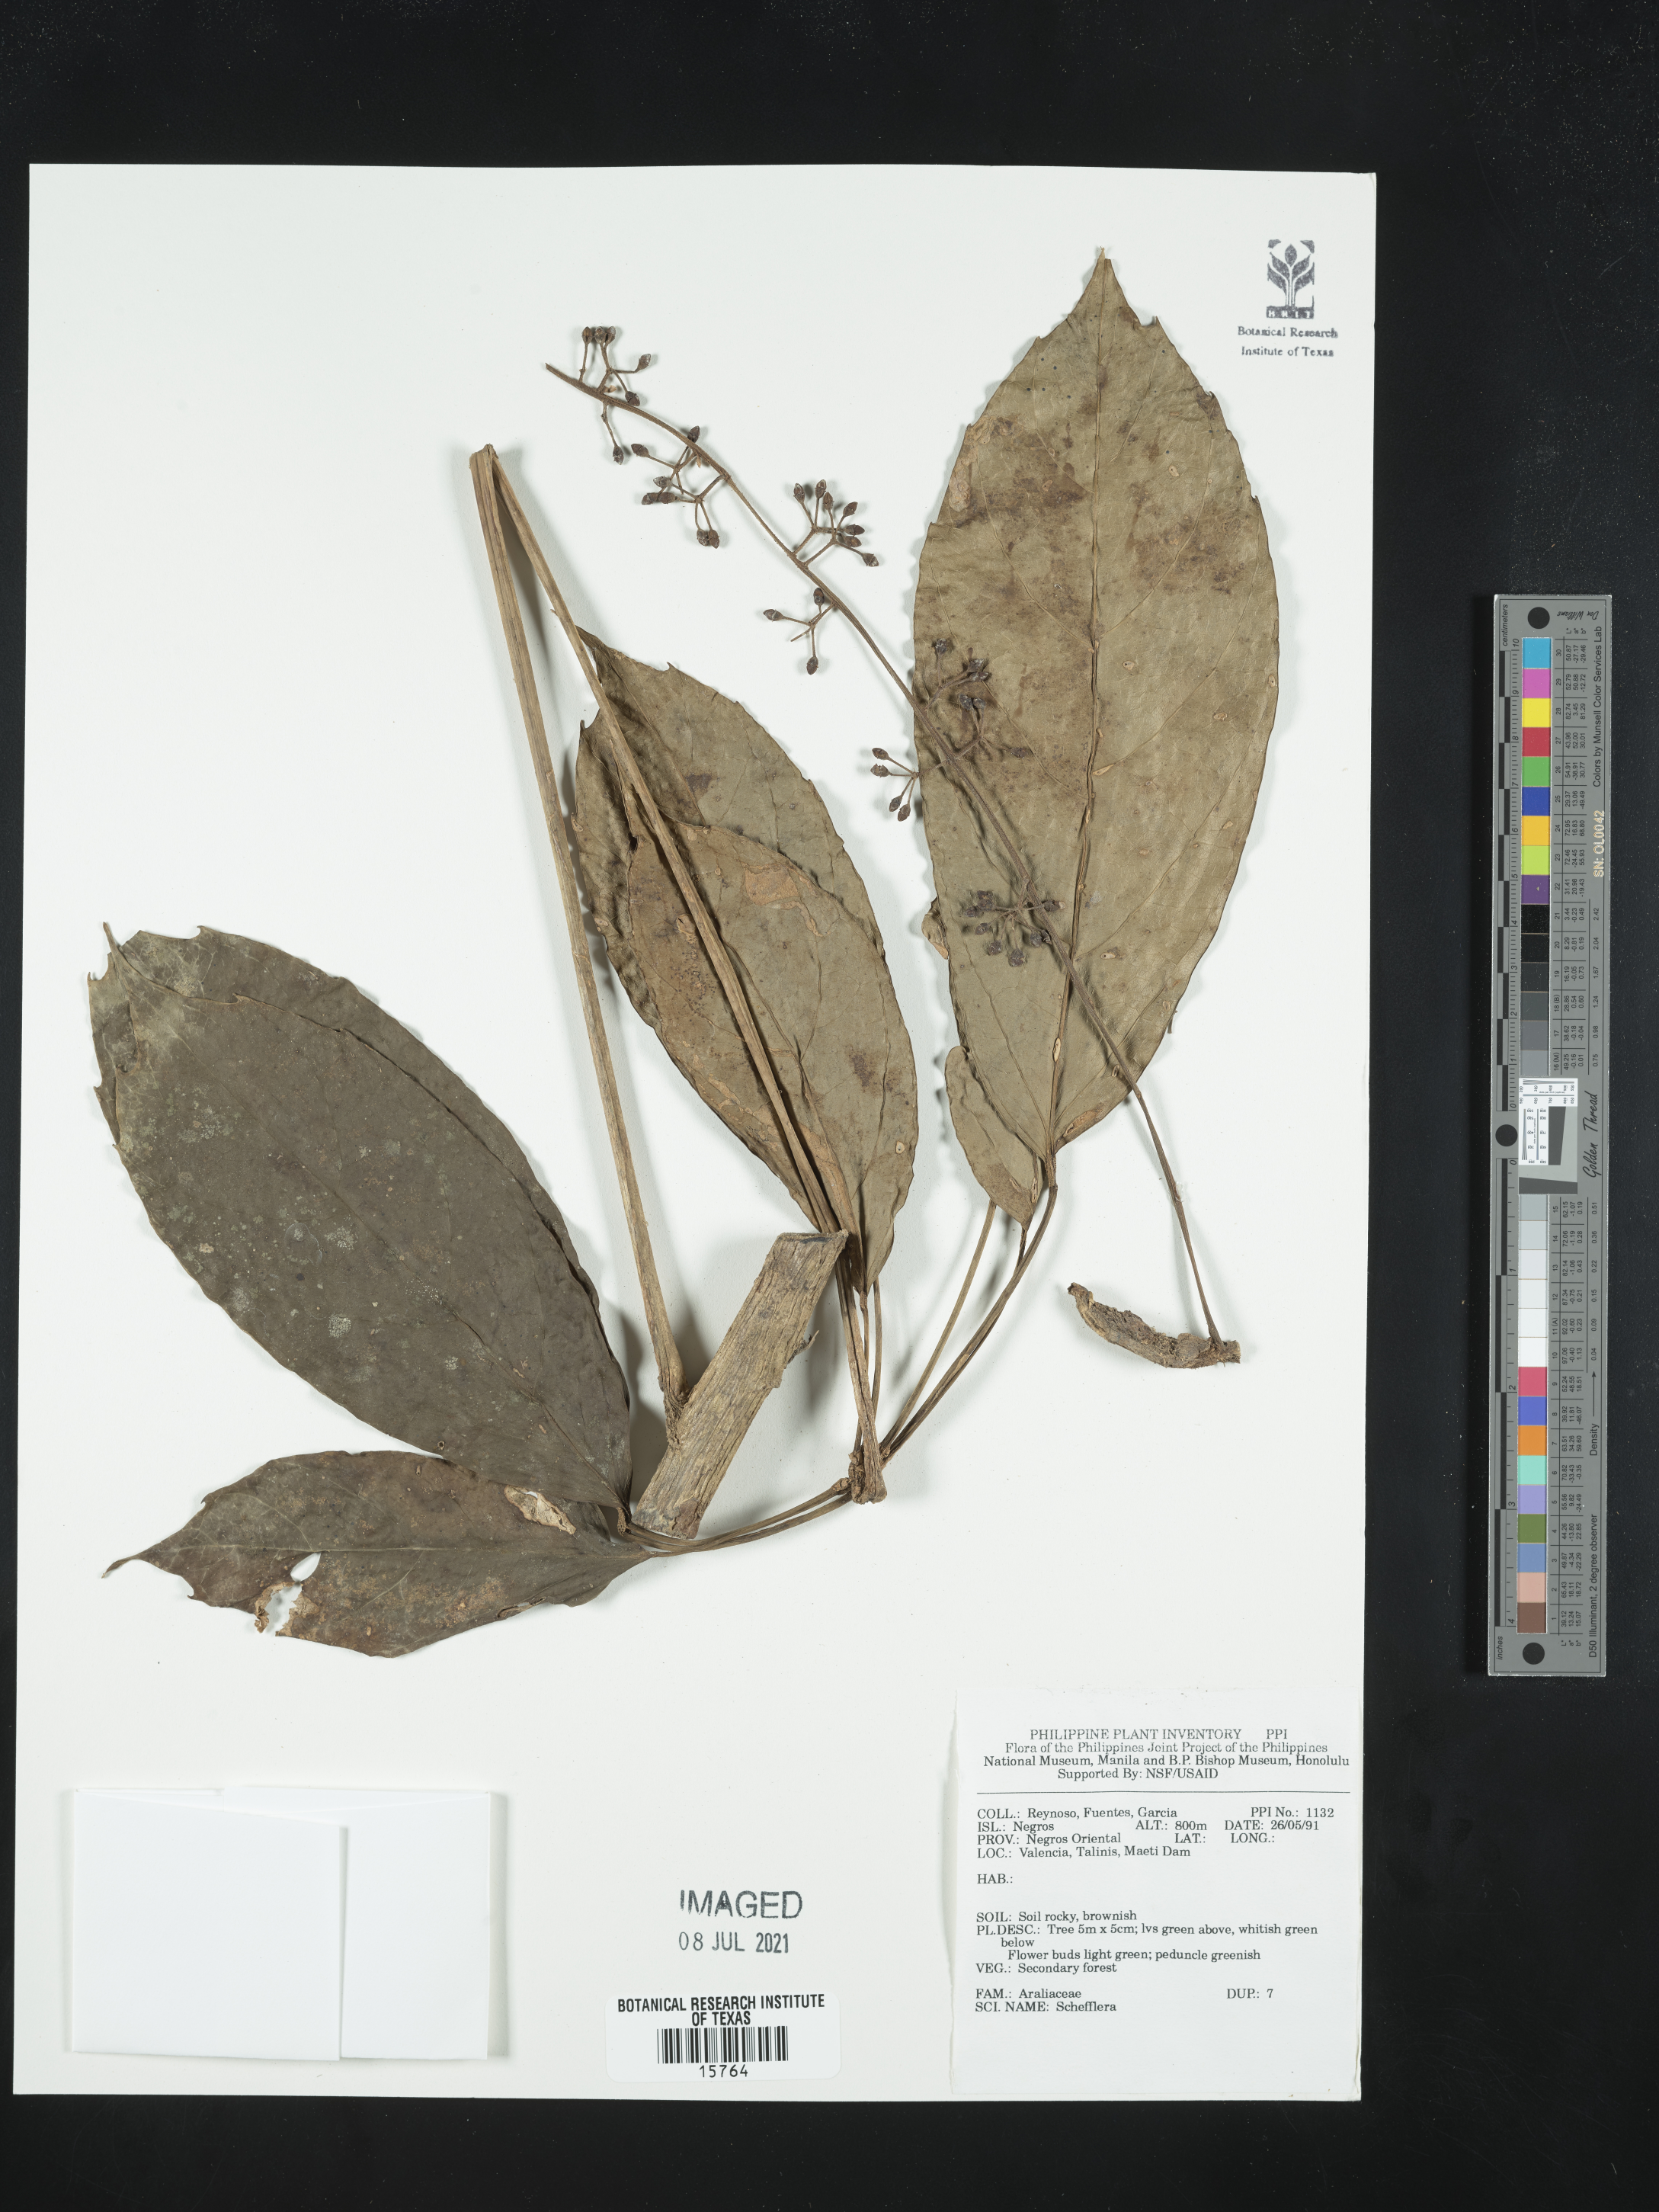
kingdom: Plantae
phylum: Tracheophyta
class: Magnoliopsida
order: Apiales
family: Araliaceae
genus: Schefflera
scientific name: Schefflera
